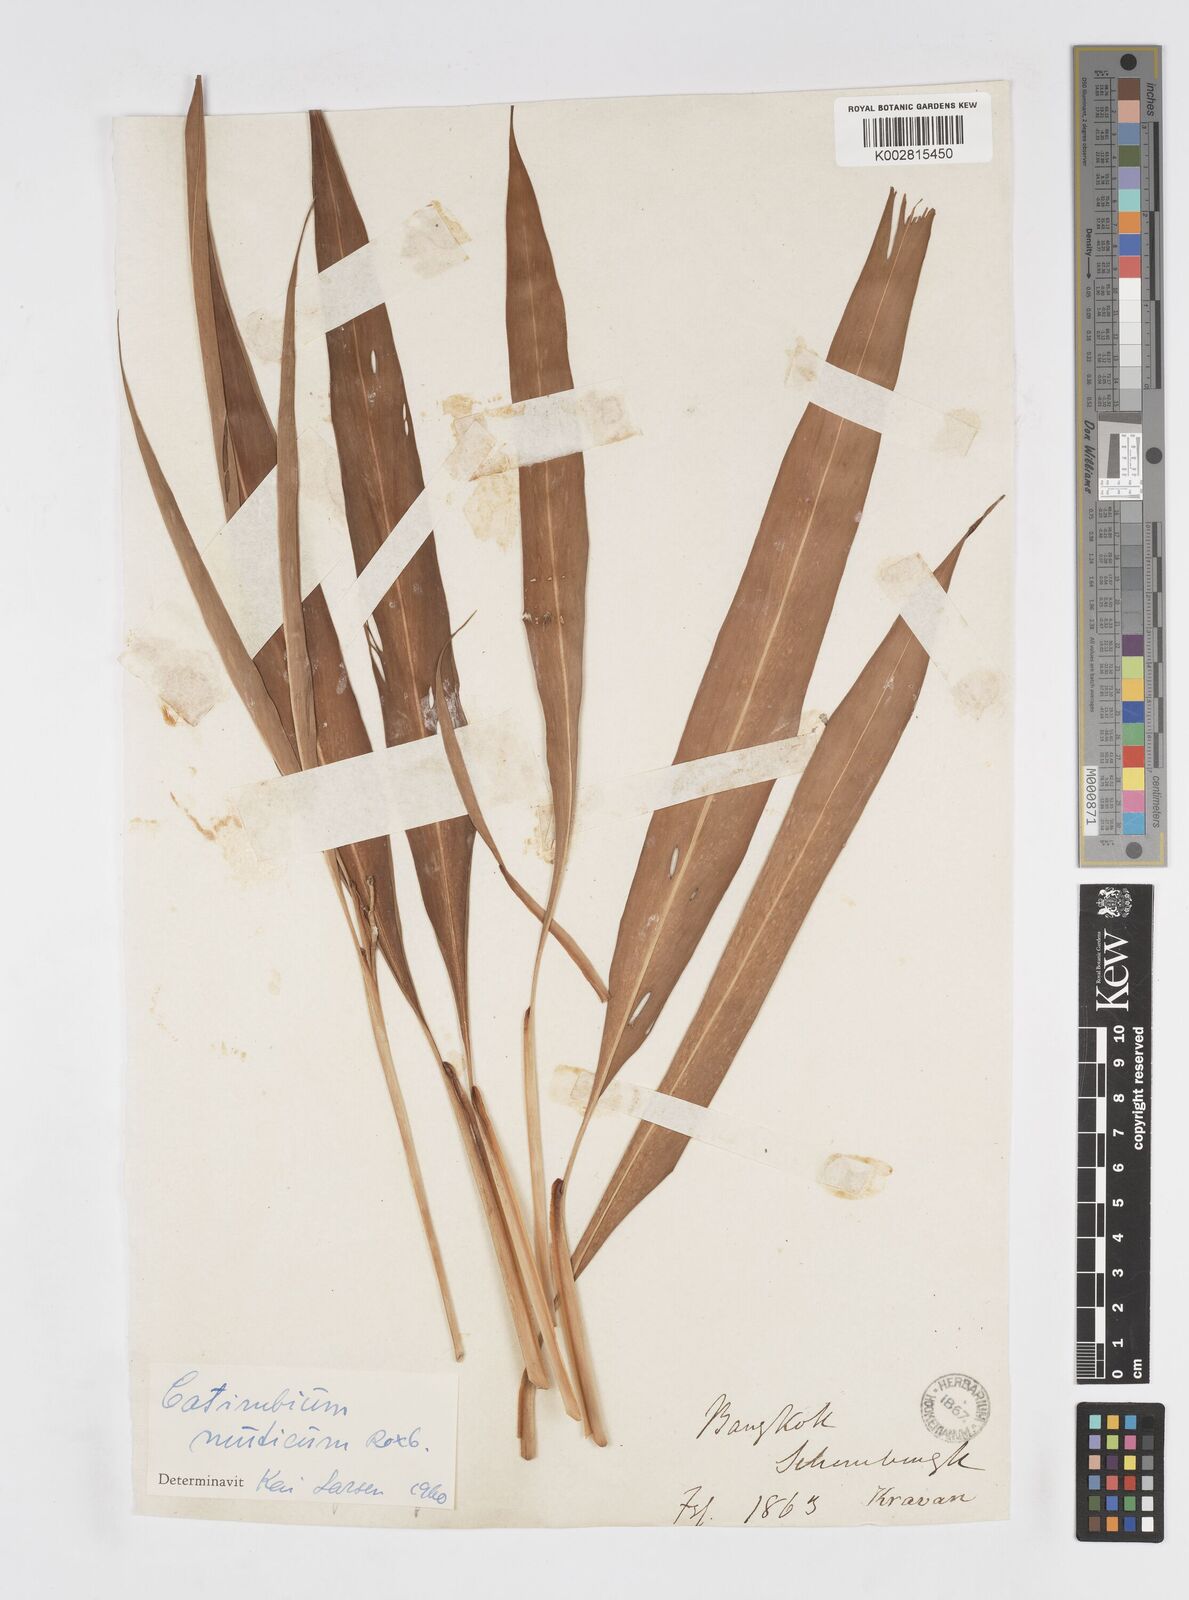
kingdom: Plantae
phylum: Tracheophyta
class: Liliopsida
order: Zingiberales
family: Zingiberaceae
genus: Alpinia
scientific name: Alpinia mutica
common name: Small shell ginger
